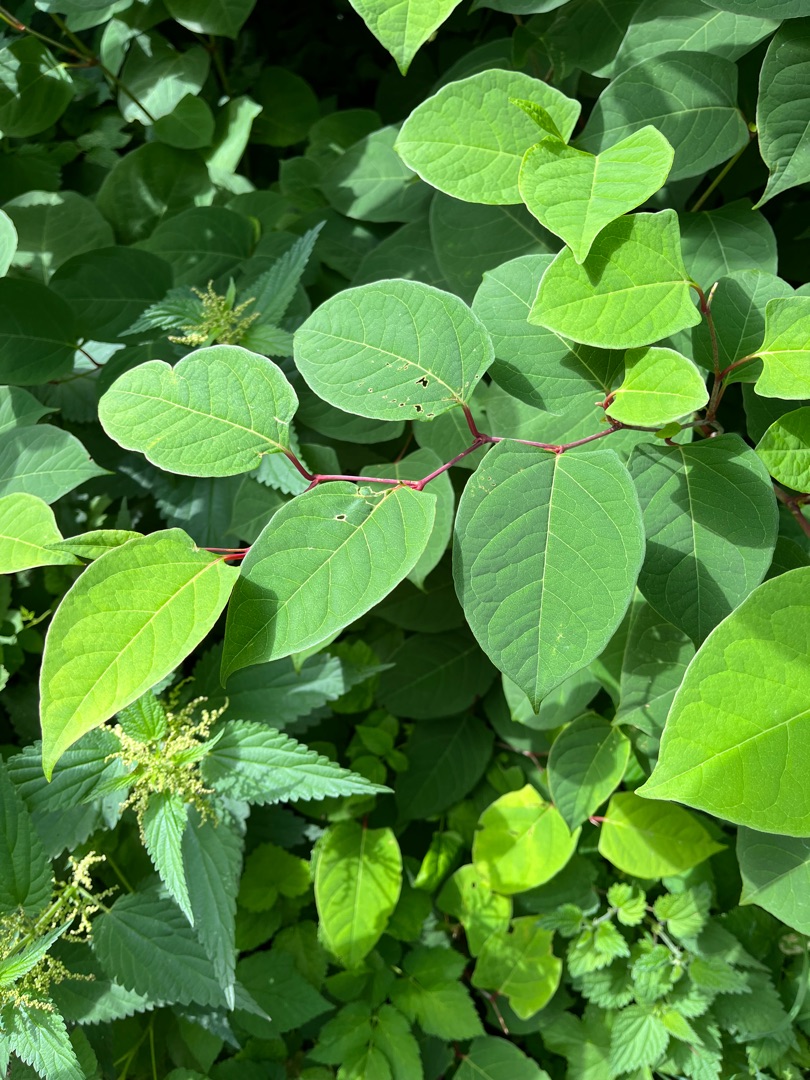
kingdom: Plantae
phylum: Tracheophyta
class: Magnoliopsida
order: Caryophyllales
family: Polygonaceae
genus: Reynoutria
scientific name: Reynoutria japonica
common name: Japan-pileurt
